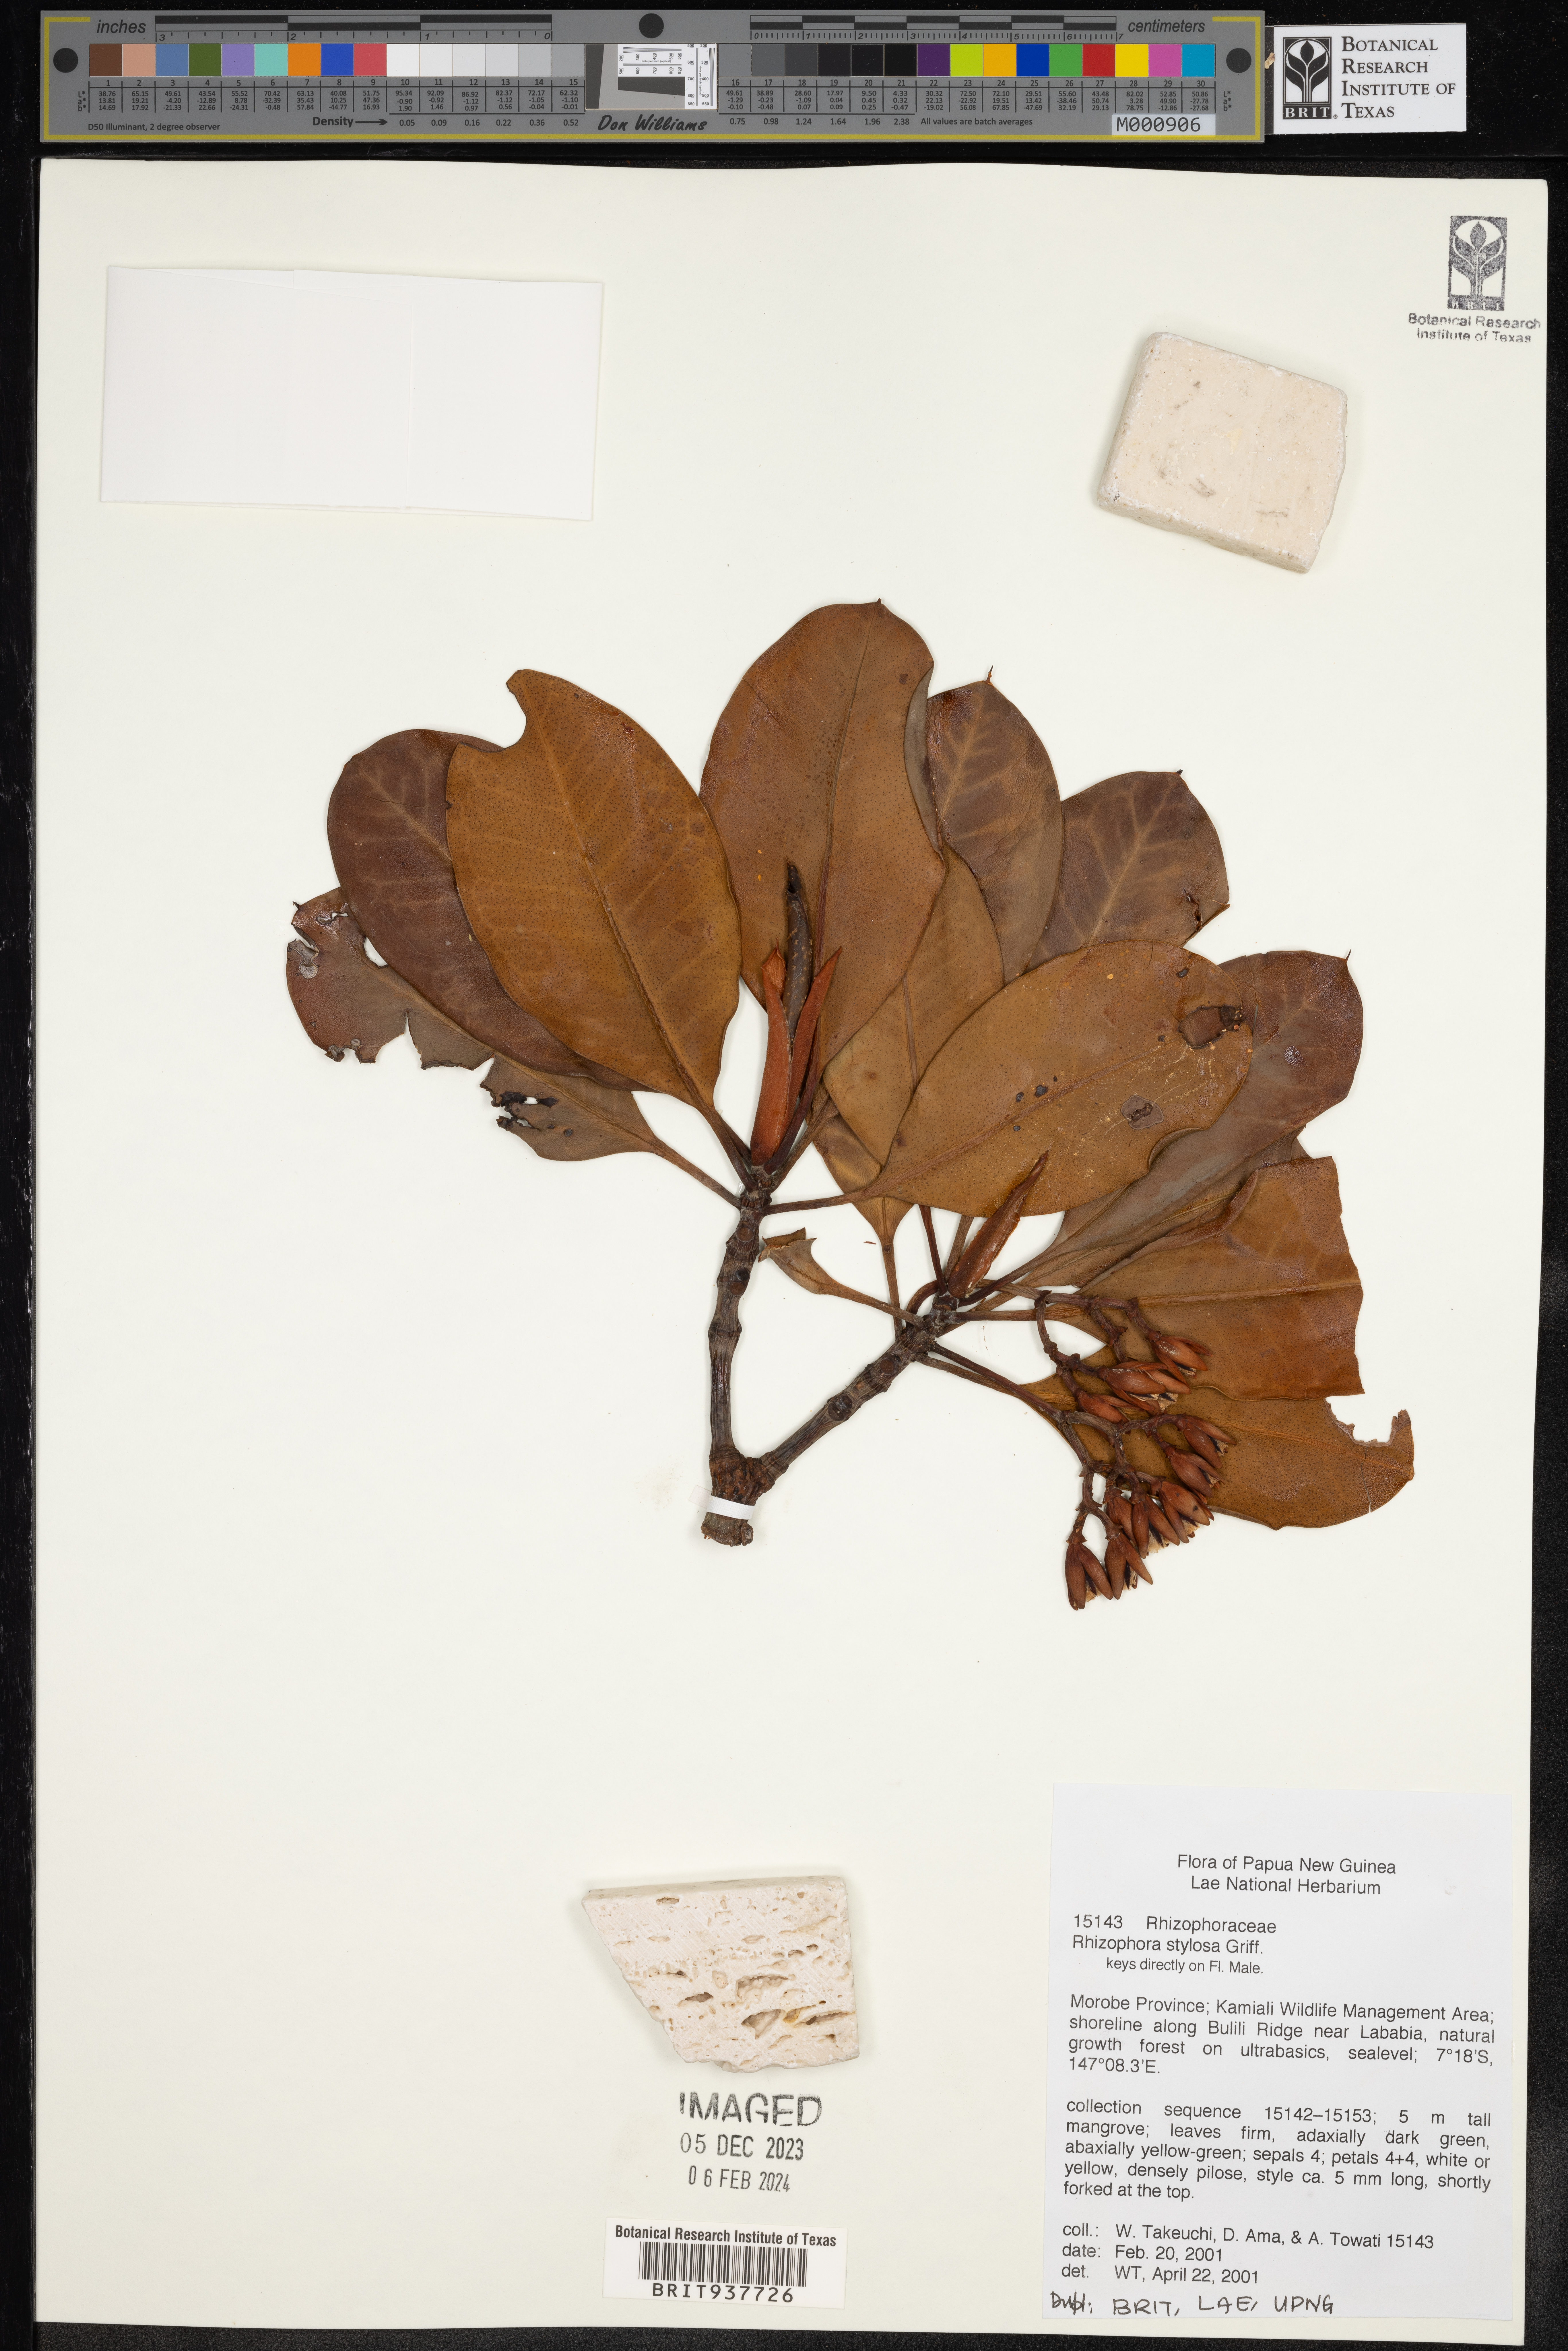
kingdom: Plantae
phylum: Tracheophyta
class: Magnoliopsida
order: Malpighiales
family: Rhizophoraceae
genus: Rhizophora
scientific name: Rhizophora stylosa
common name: Red mangrove
